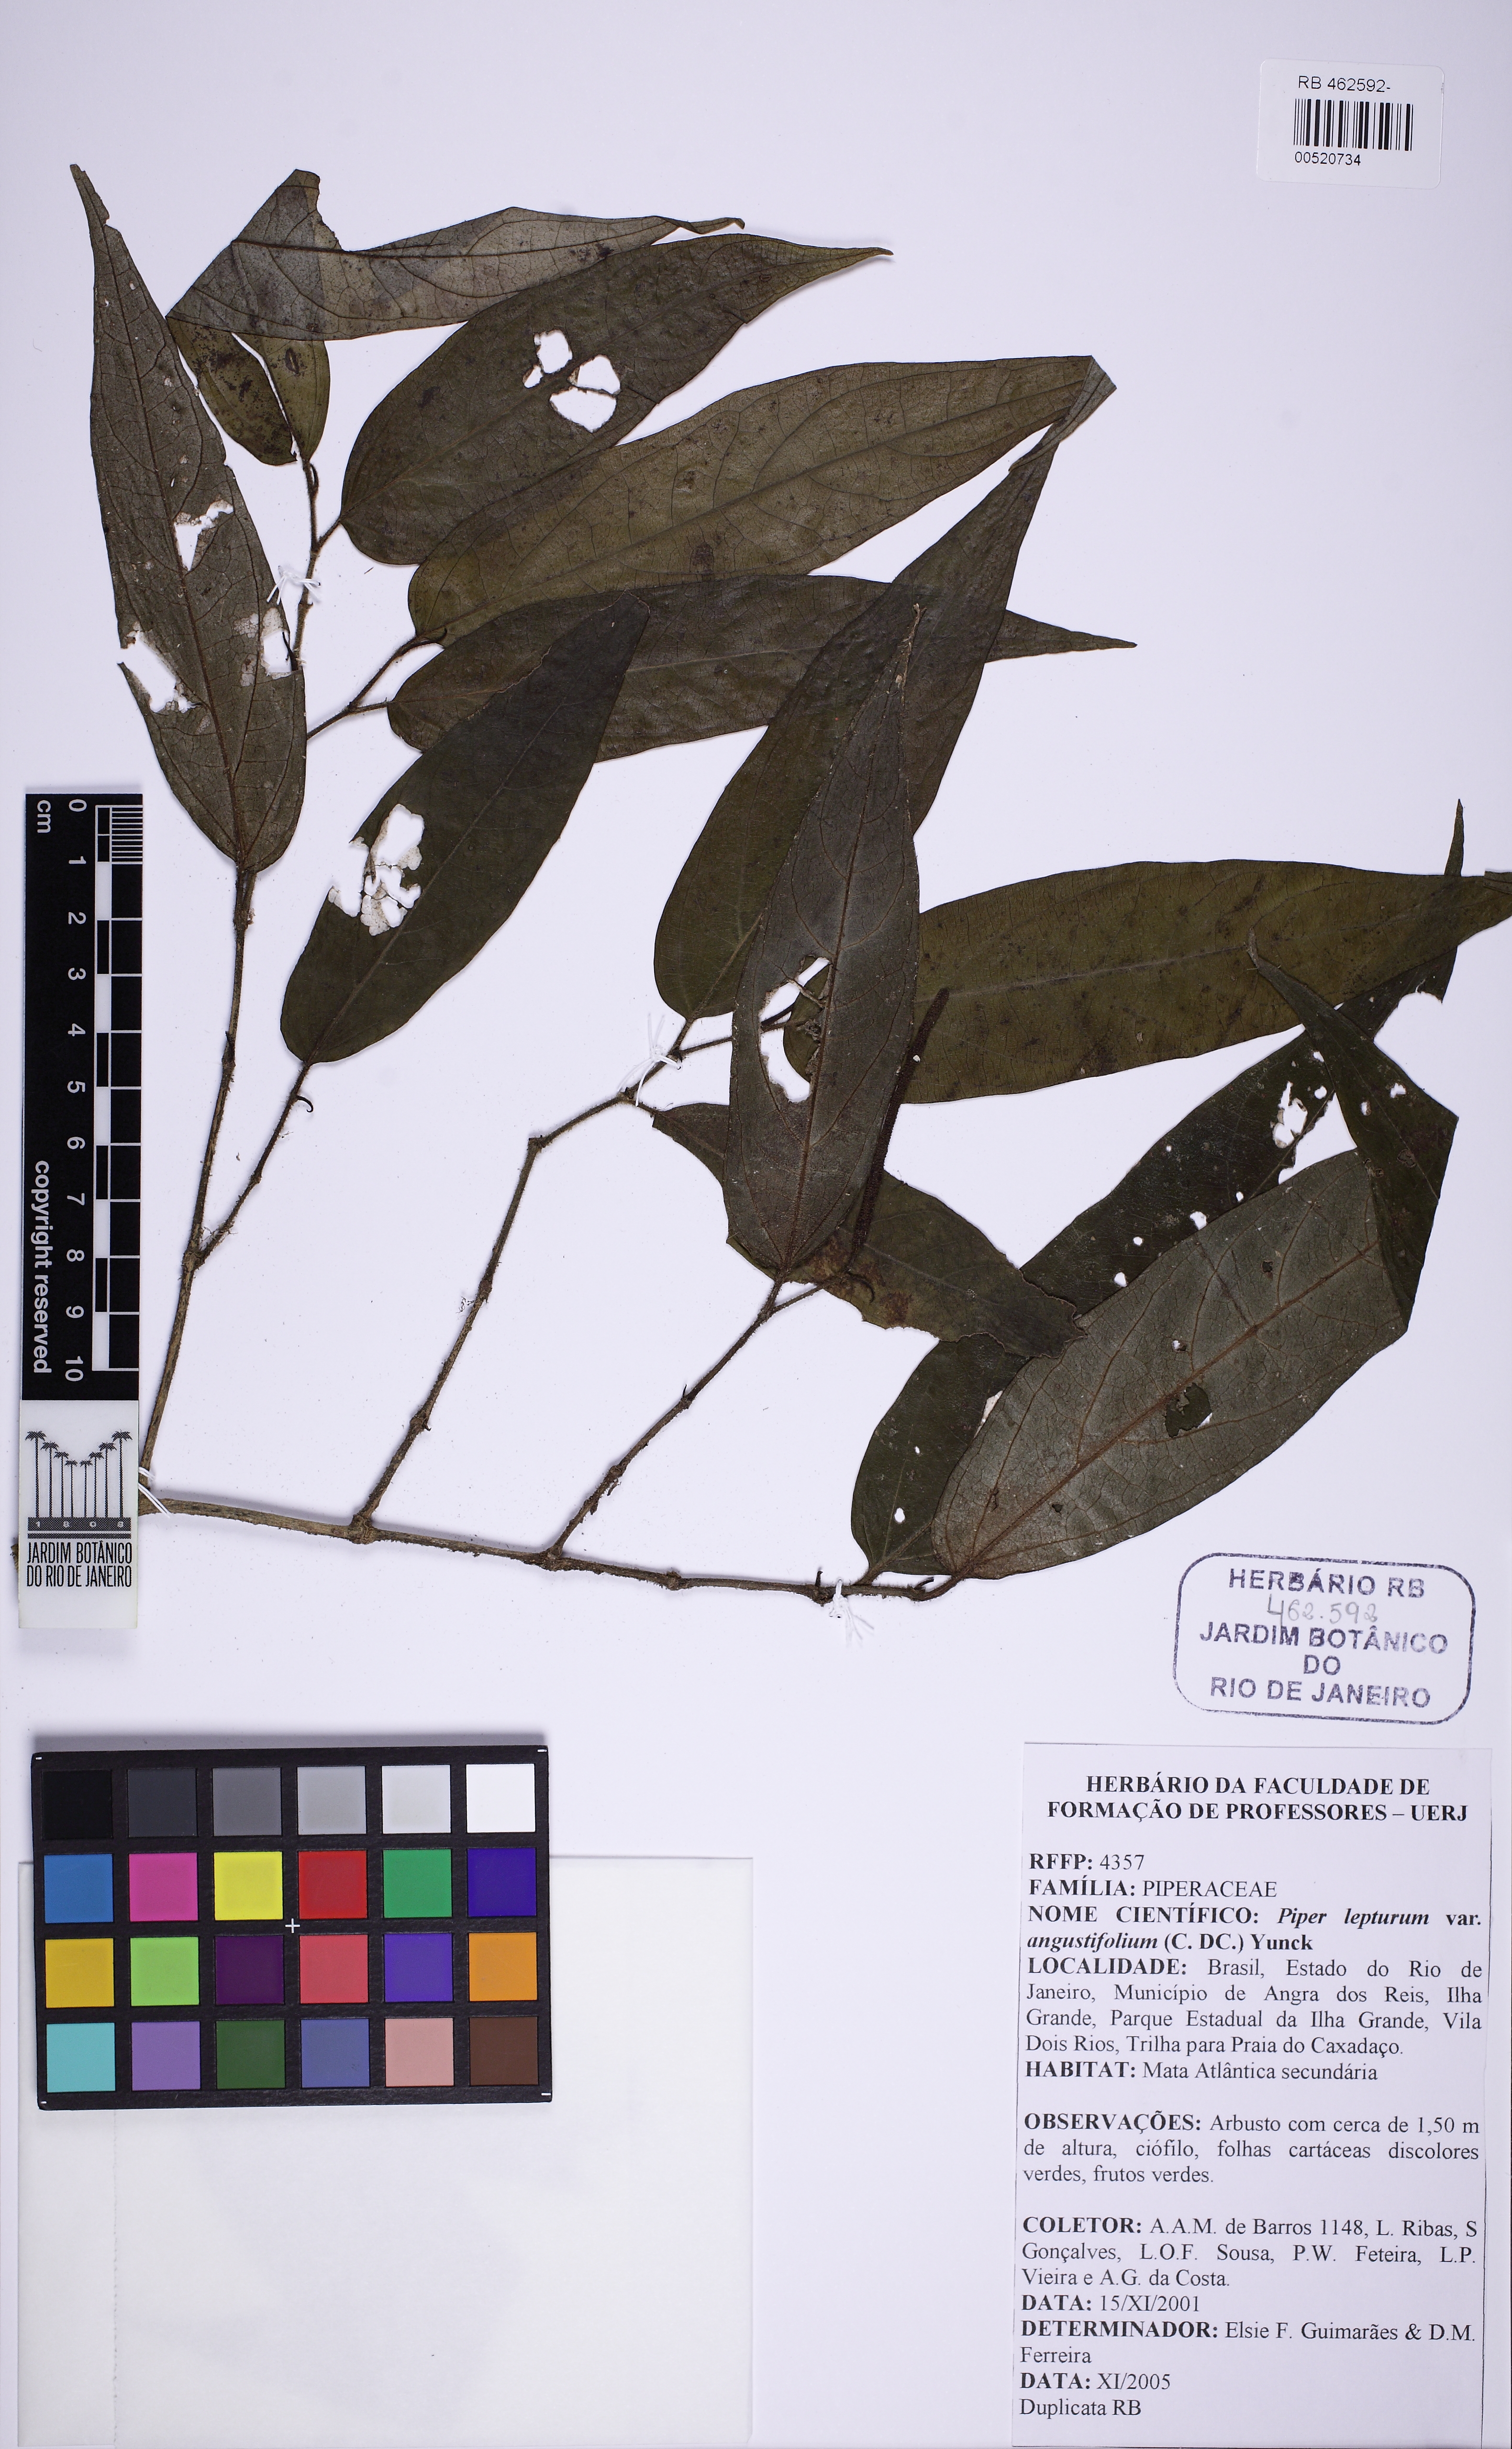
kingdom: Plantae
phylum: Tracheophyta
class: Magnoliopsida
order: Piperales
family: Piperaceae
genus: Piper
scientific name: Piper lepturum
